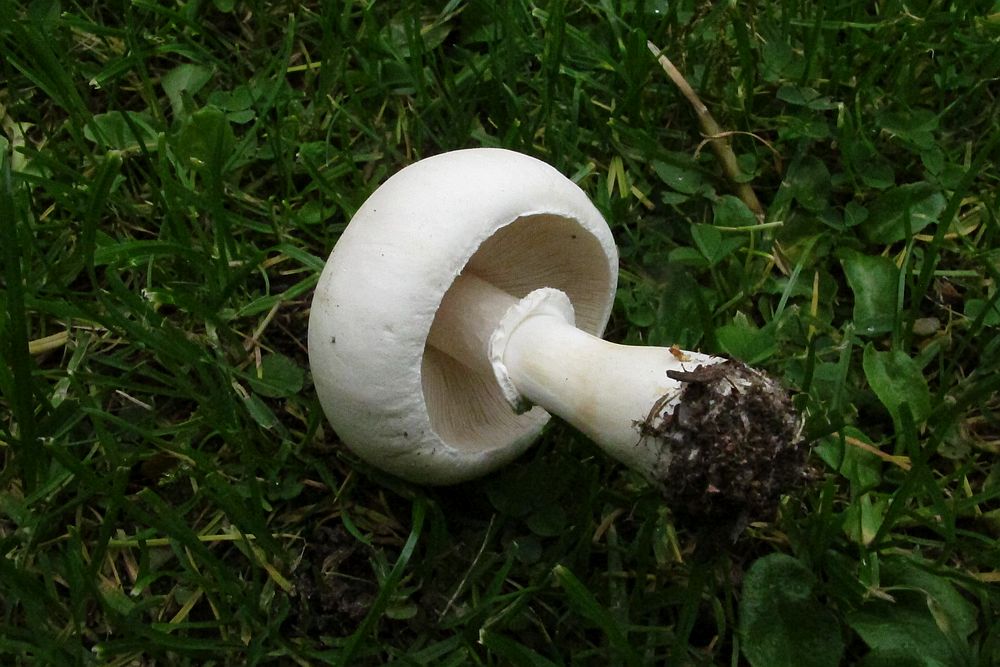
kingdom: Fungi
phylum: Basidiomycota
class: Agaricomycetes
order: Agaricales
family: Agaricaceae
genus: Leucoagaricus
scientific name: Leucoagaricus leucothites
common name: rosabladet silkehat
